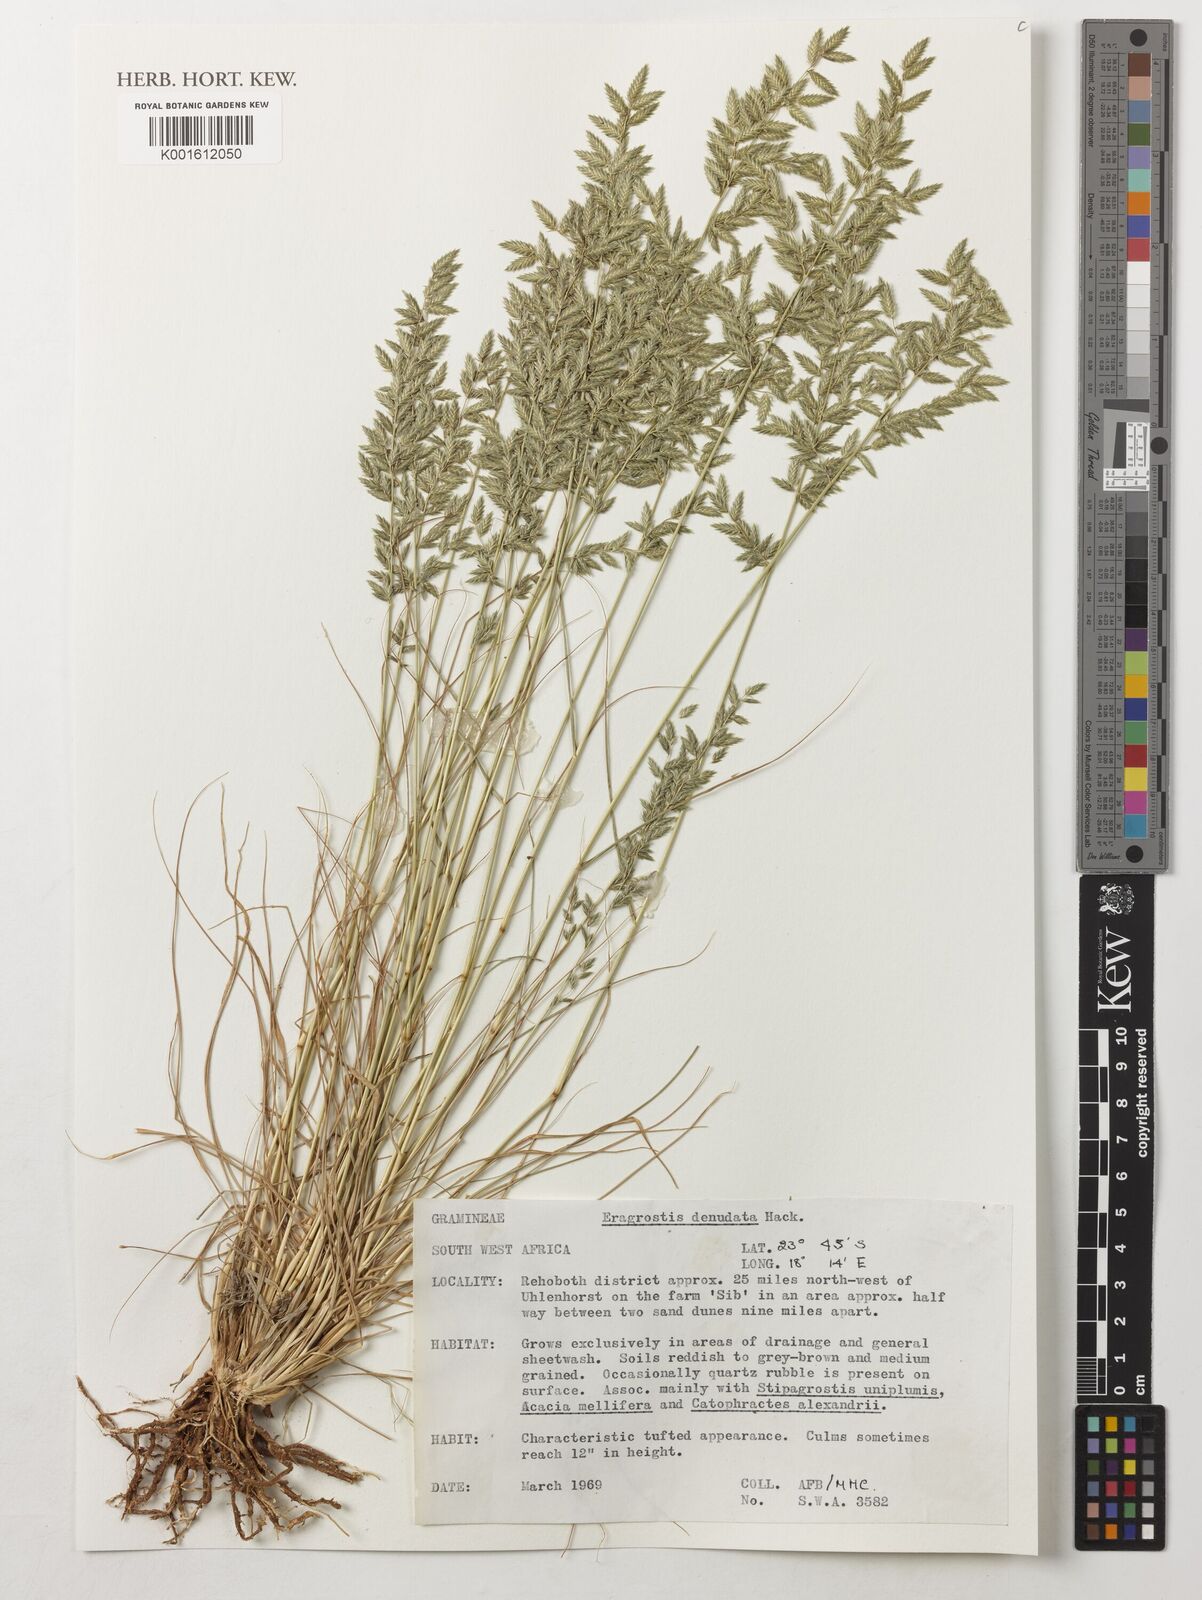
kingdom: Plantae
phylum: Tracheophyta
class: Liliopsida
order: Poales
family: Poaceae
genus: Eragrostis
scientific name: Eragrostis
